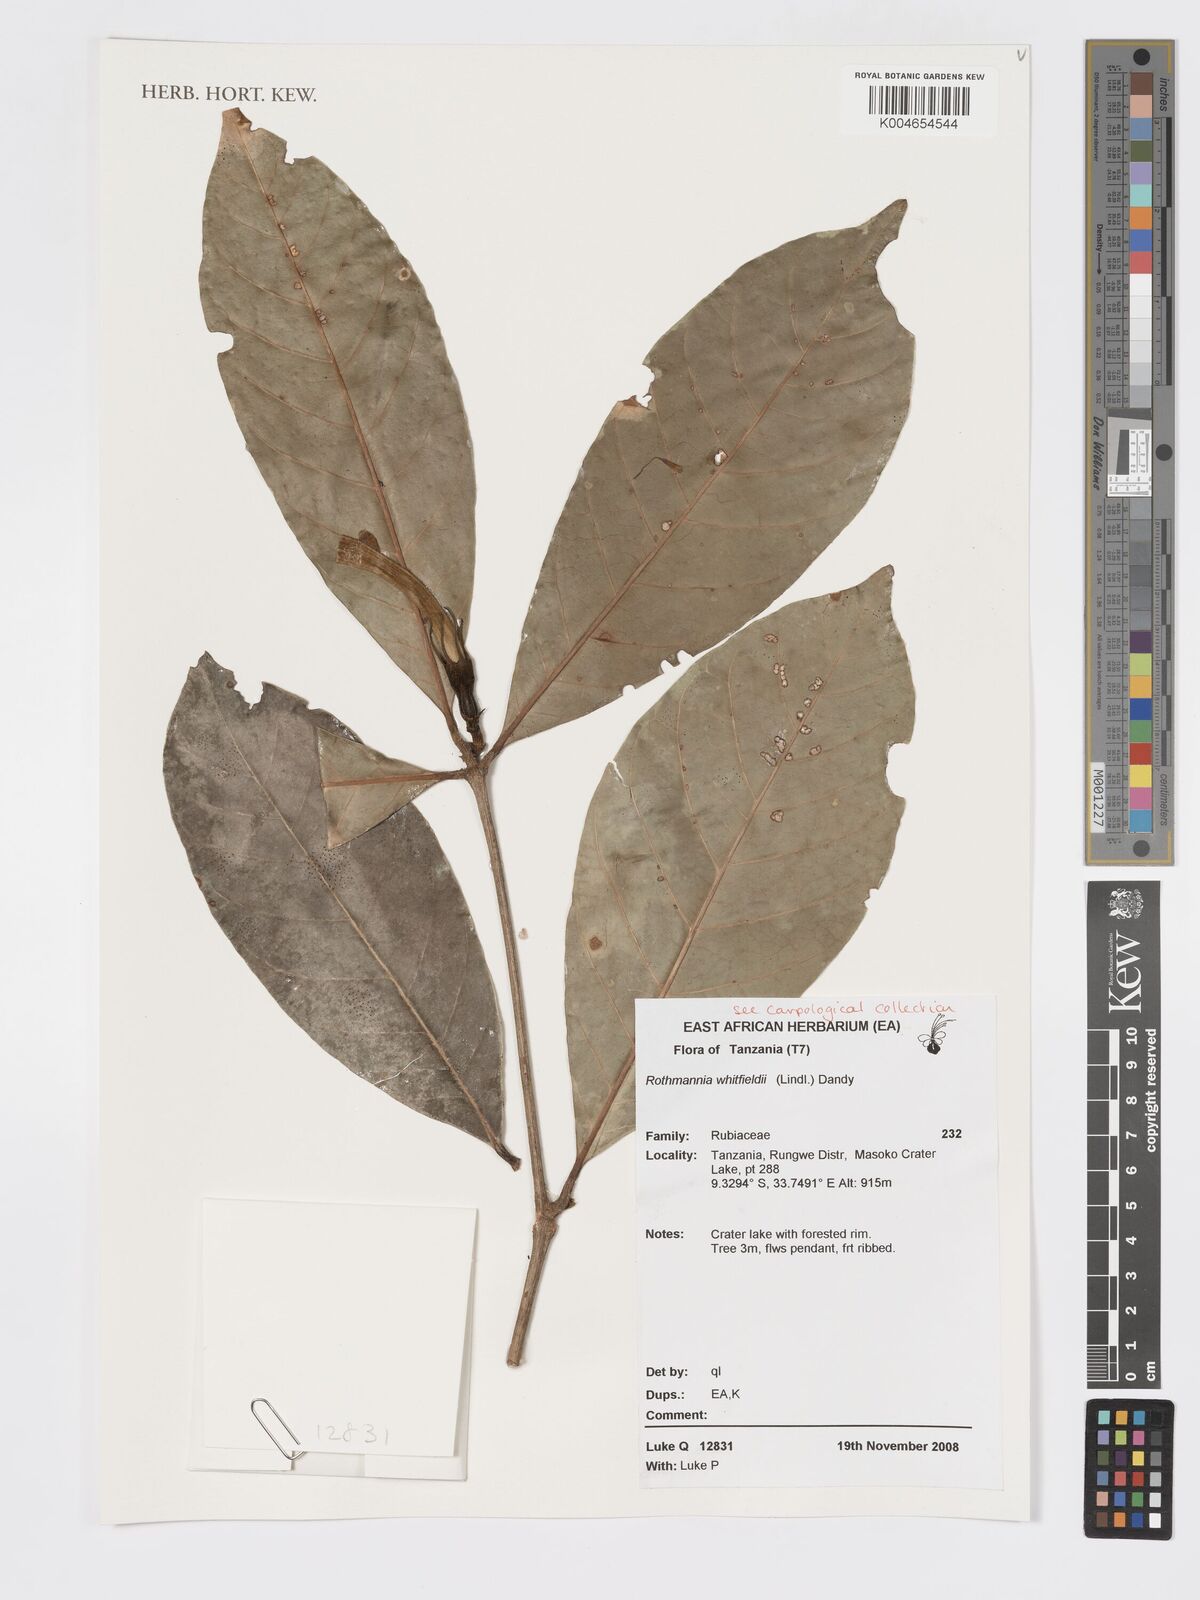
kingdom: Plantae
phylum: Tracheophyta
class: Magnoliopsida
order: Gentianales
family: Rubiaceae
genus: Rothmannia
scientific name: Rothmannia whitfieldii
